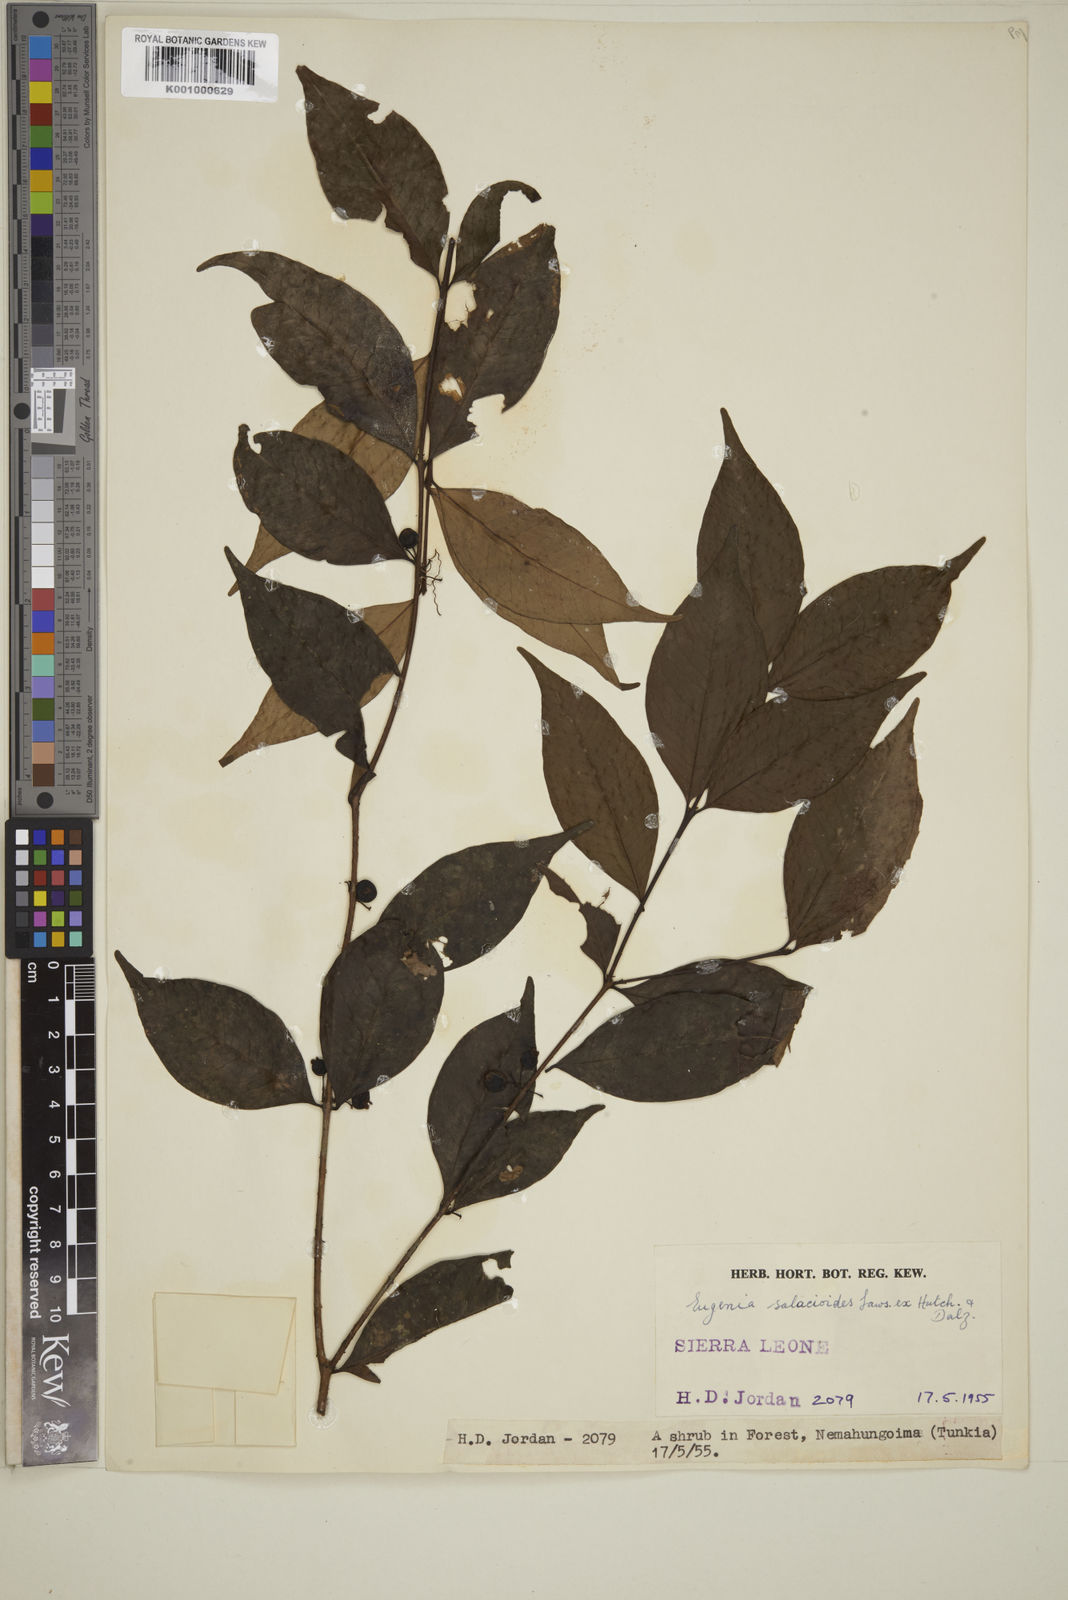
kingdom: Plantae
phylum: Tracheophyta
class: Magnoliopsida
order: Myrtales
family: Myrtaceae
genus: Eugenia
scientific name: Eugenia leonensis
